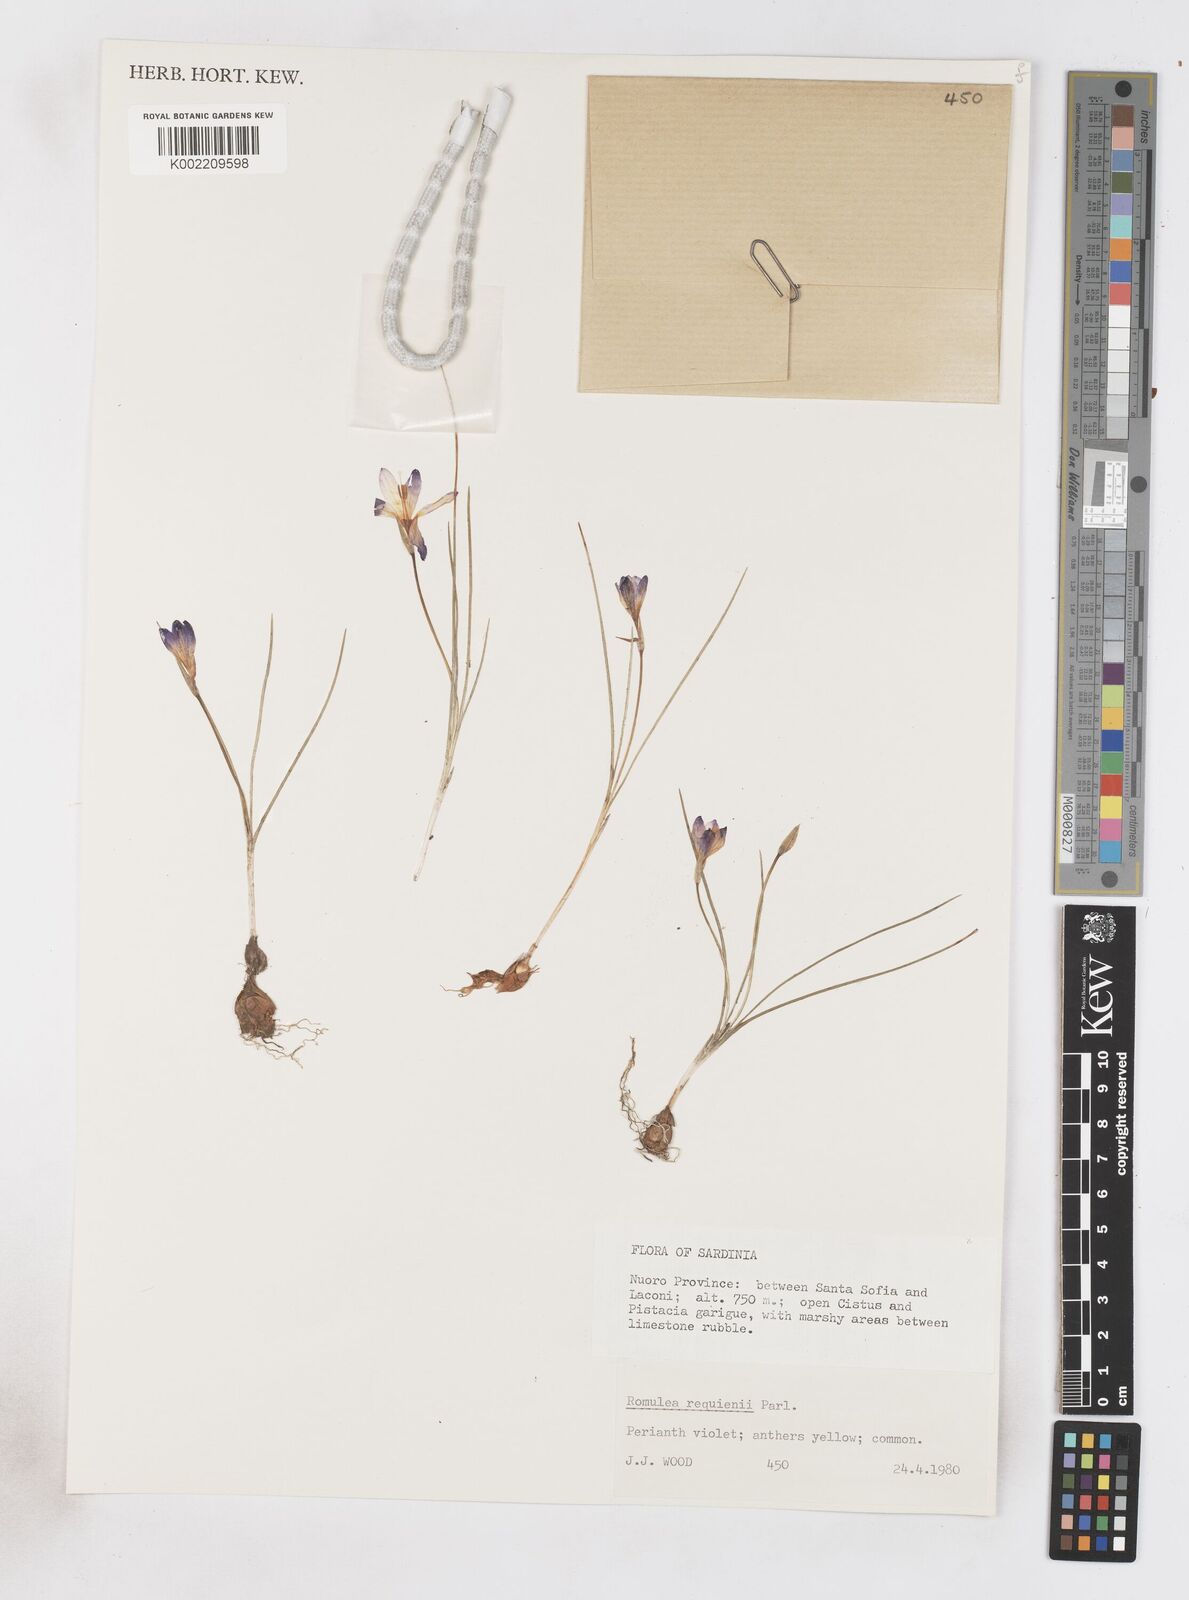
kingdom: Plantae
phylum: Tracheophyta
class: Liliopsida
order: Asparagales
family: Iridaceae
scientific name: Iridaceae
